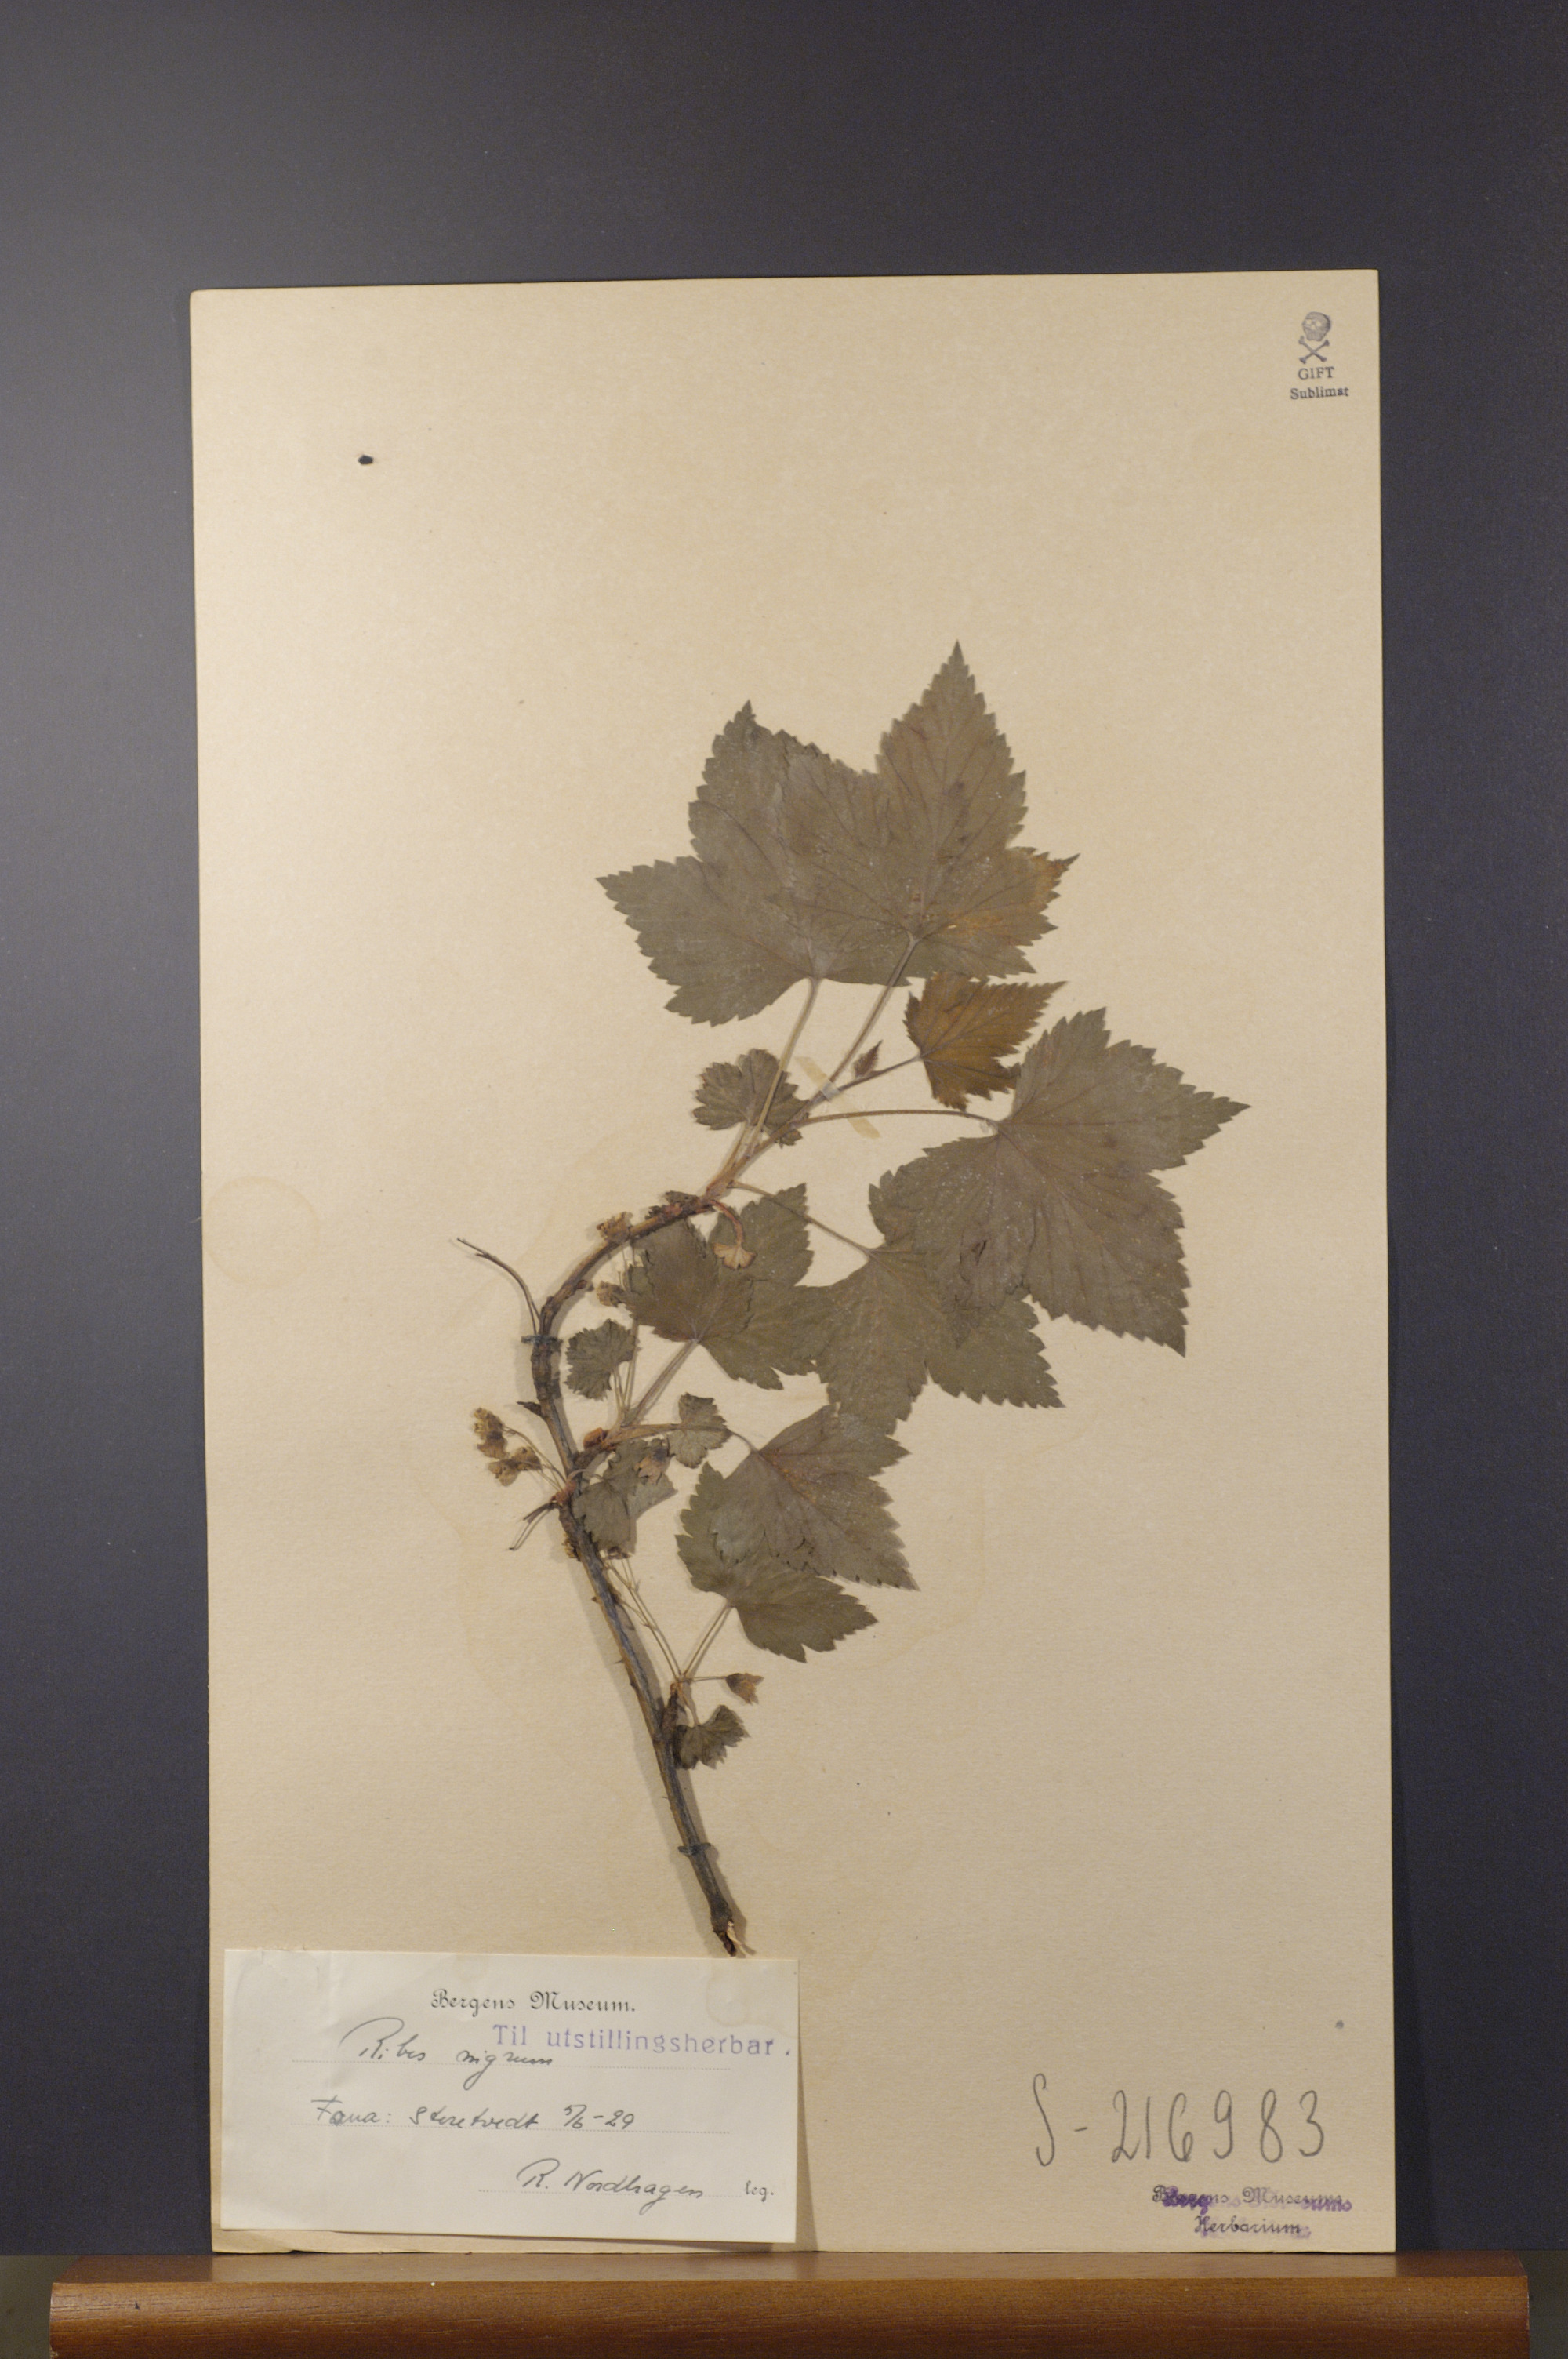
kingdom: Plantae
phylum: Tracheophyta
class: Magnoliopsida
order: Saxifragales
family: Grossulariaceae
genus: Ribes
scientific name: Ribes nigrum
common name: Black currant
